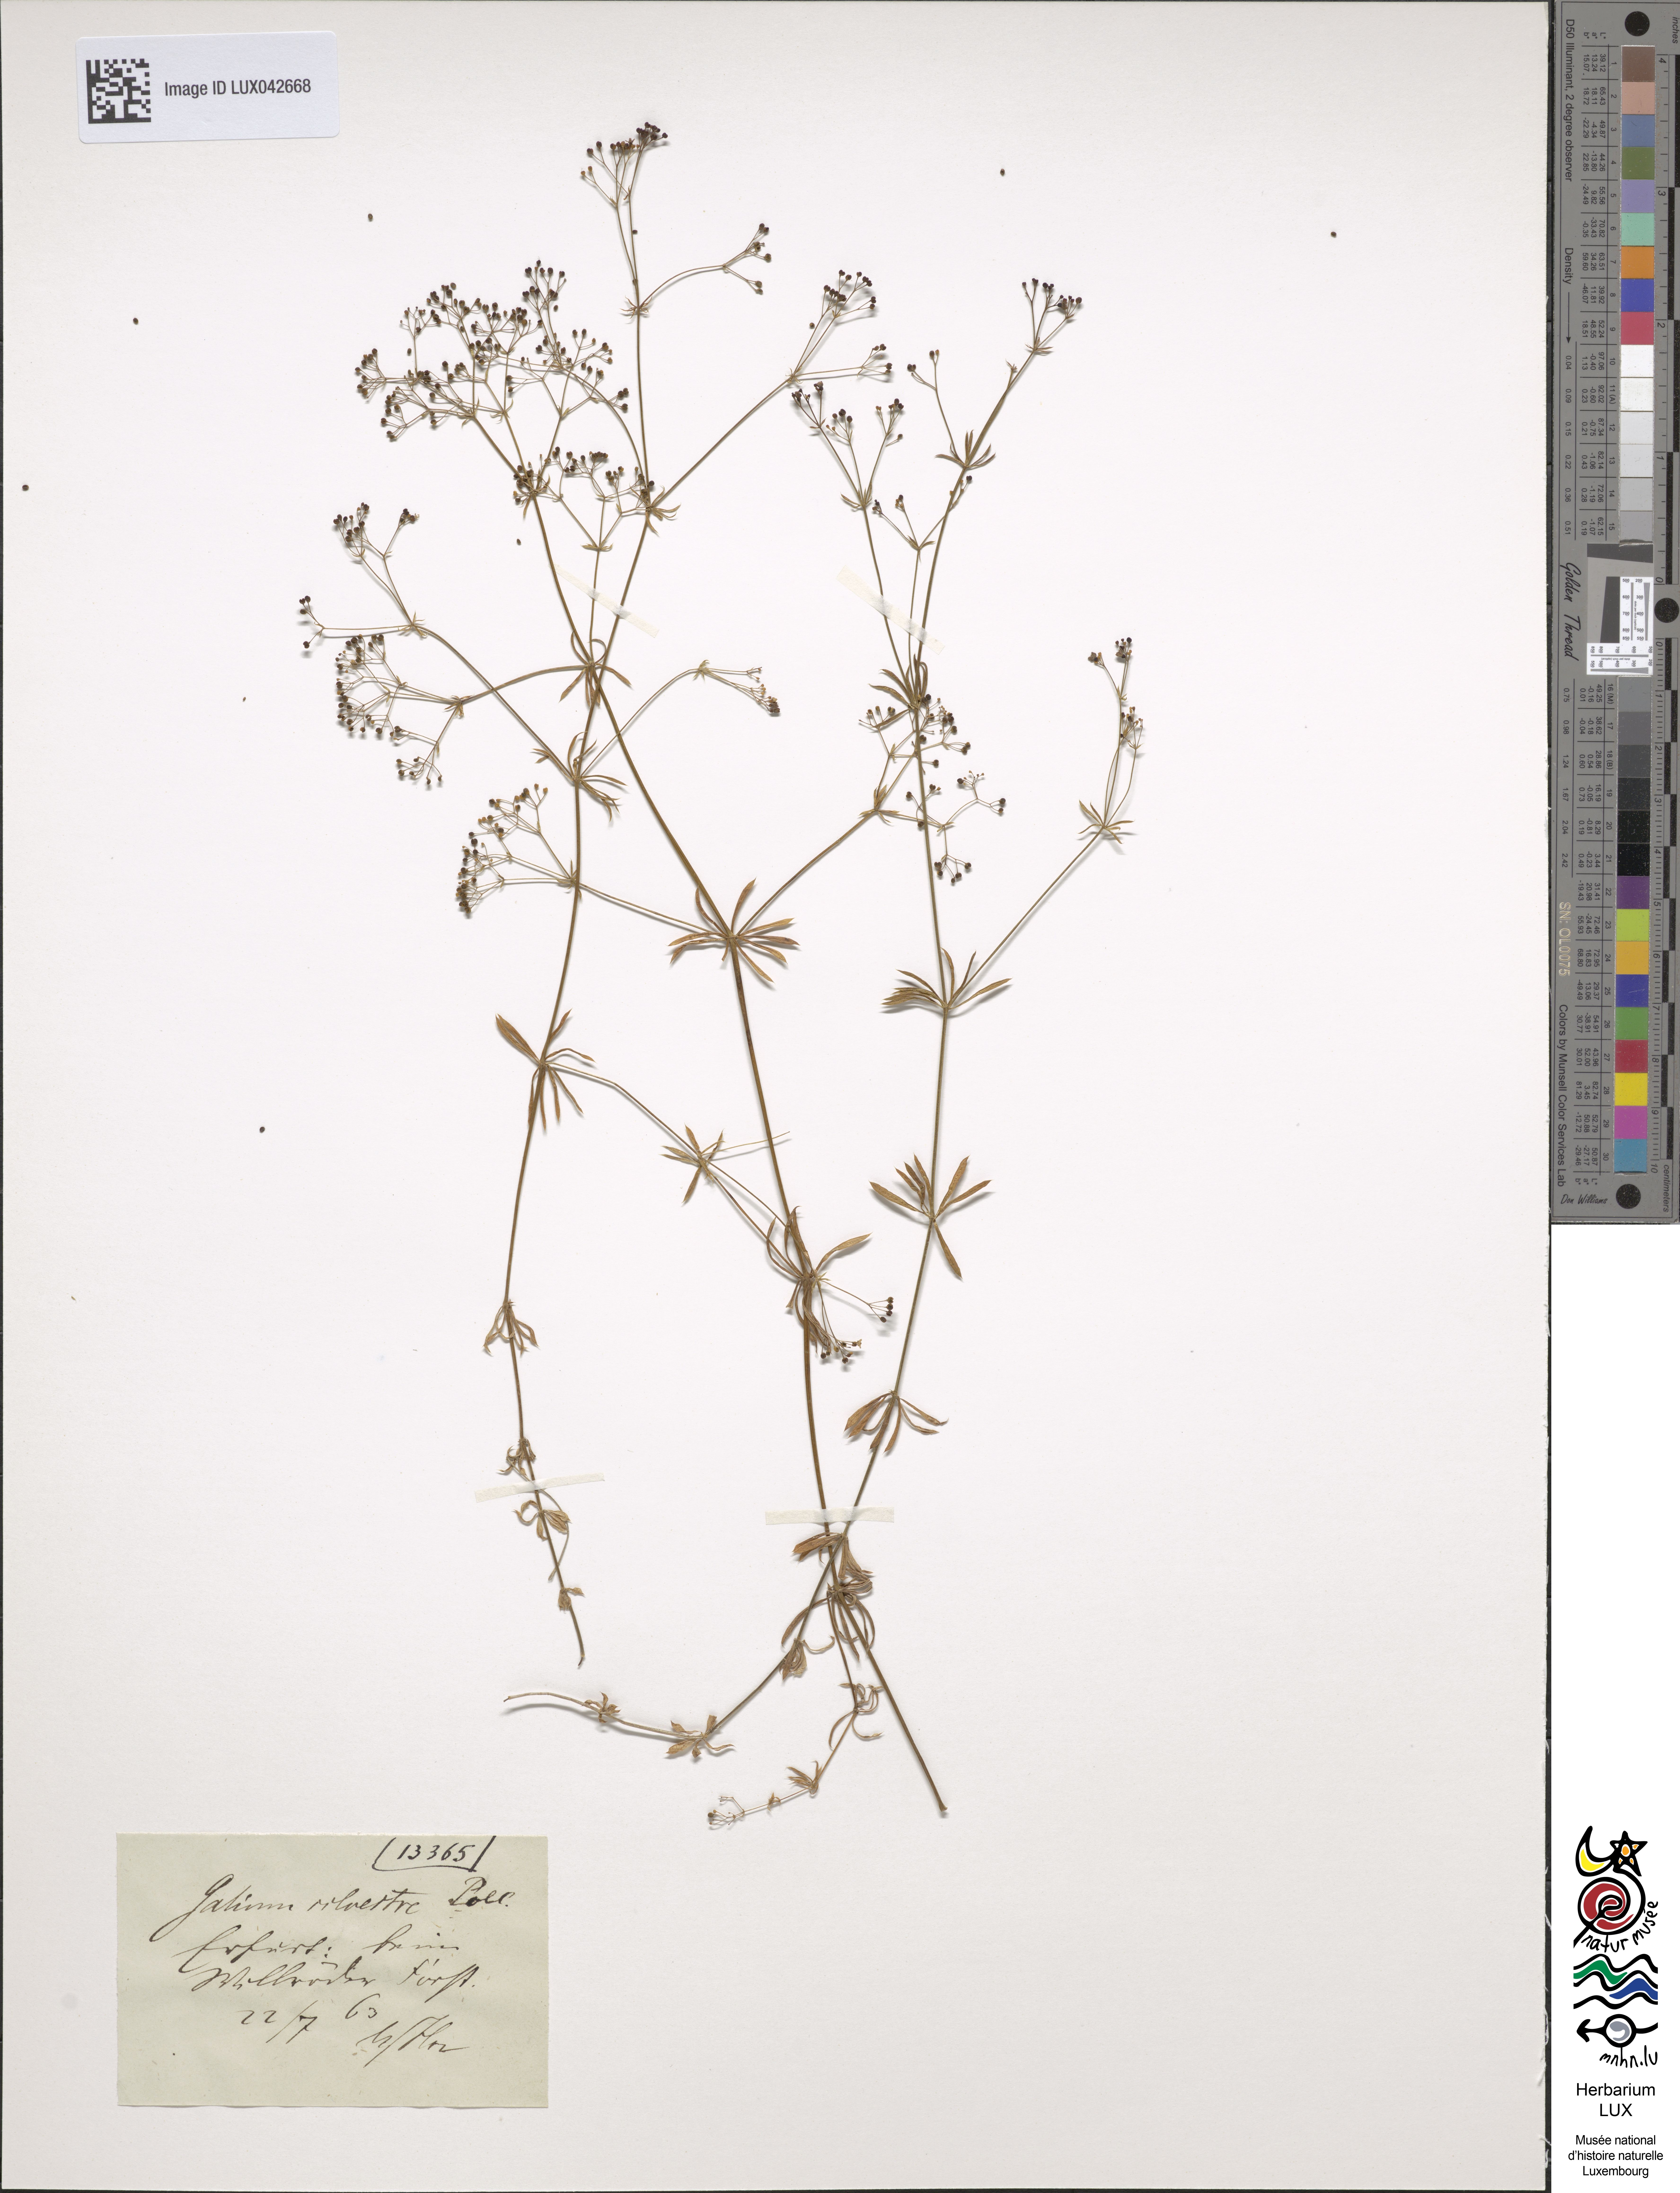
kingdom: Plantae
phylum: Tracheophyta
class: Magnoliopsida
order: Gentianales
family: Rubiaceae
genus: Galium
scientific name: Galium pumilum
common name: Slender bedstraw
